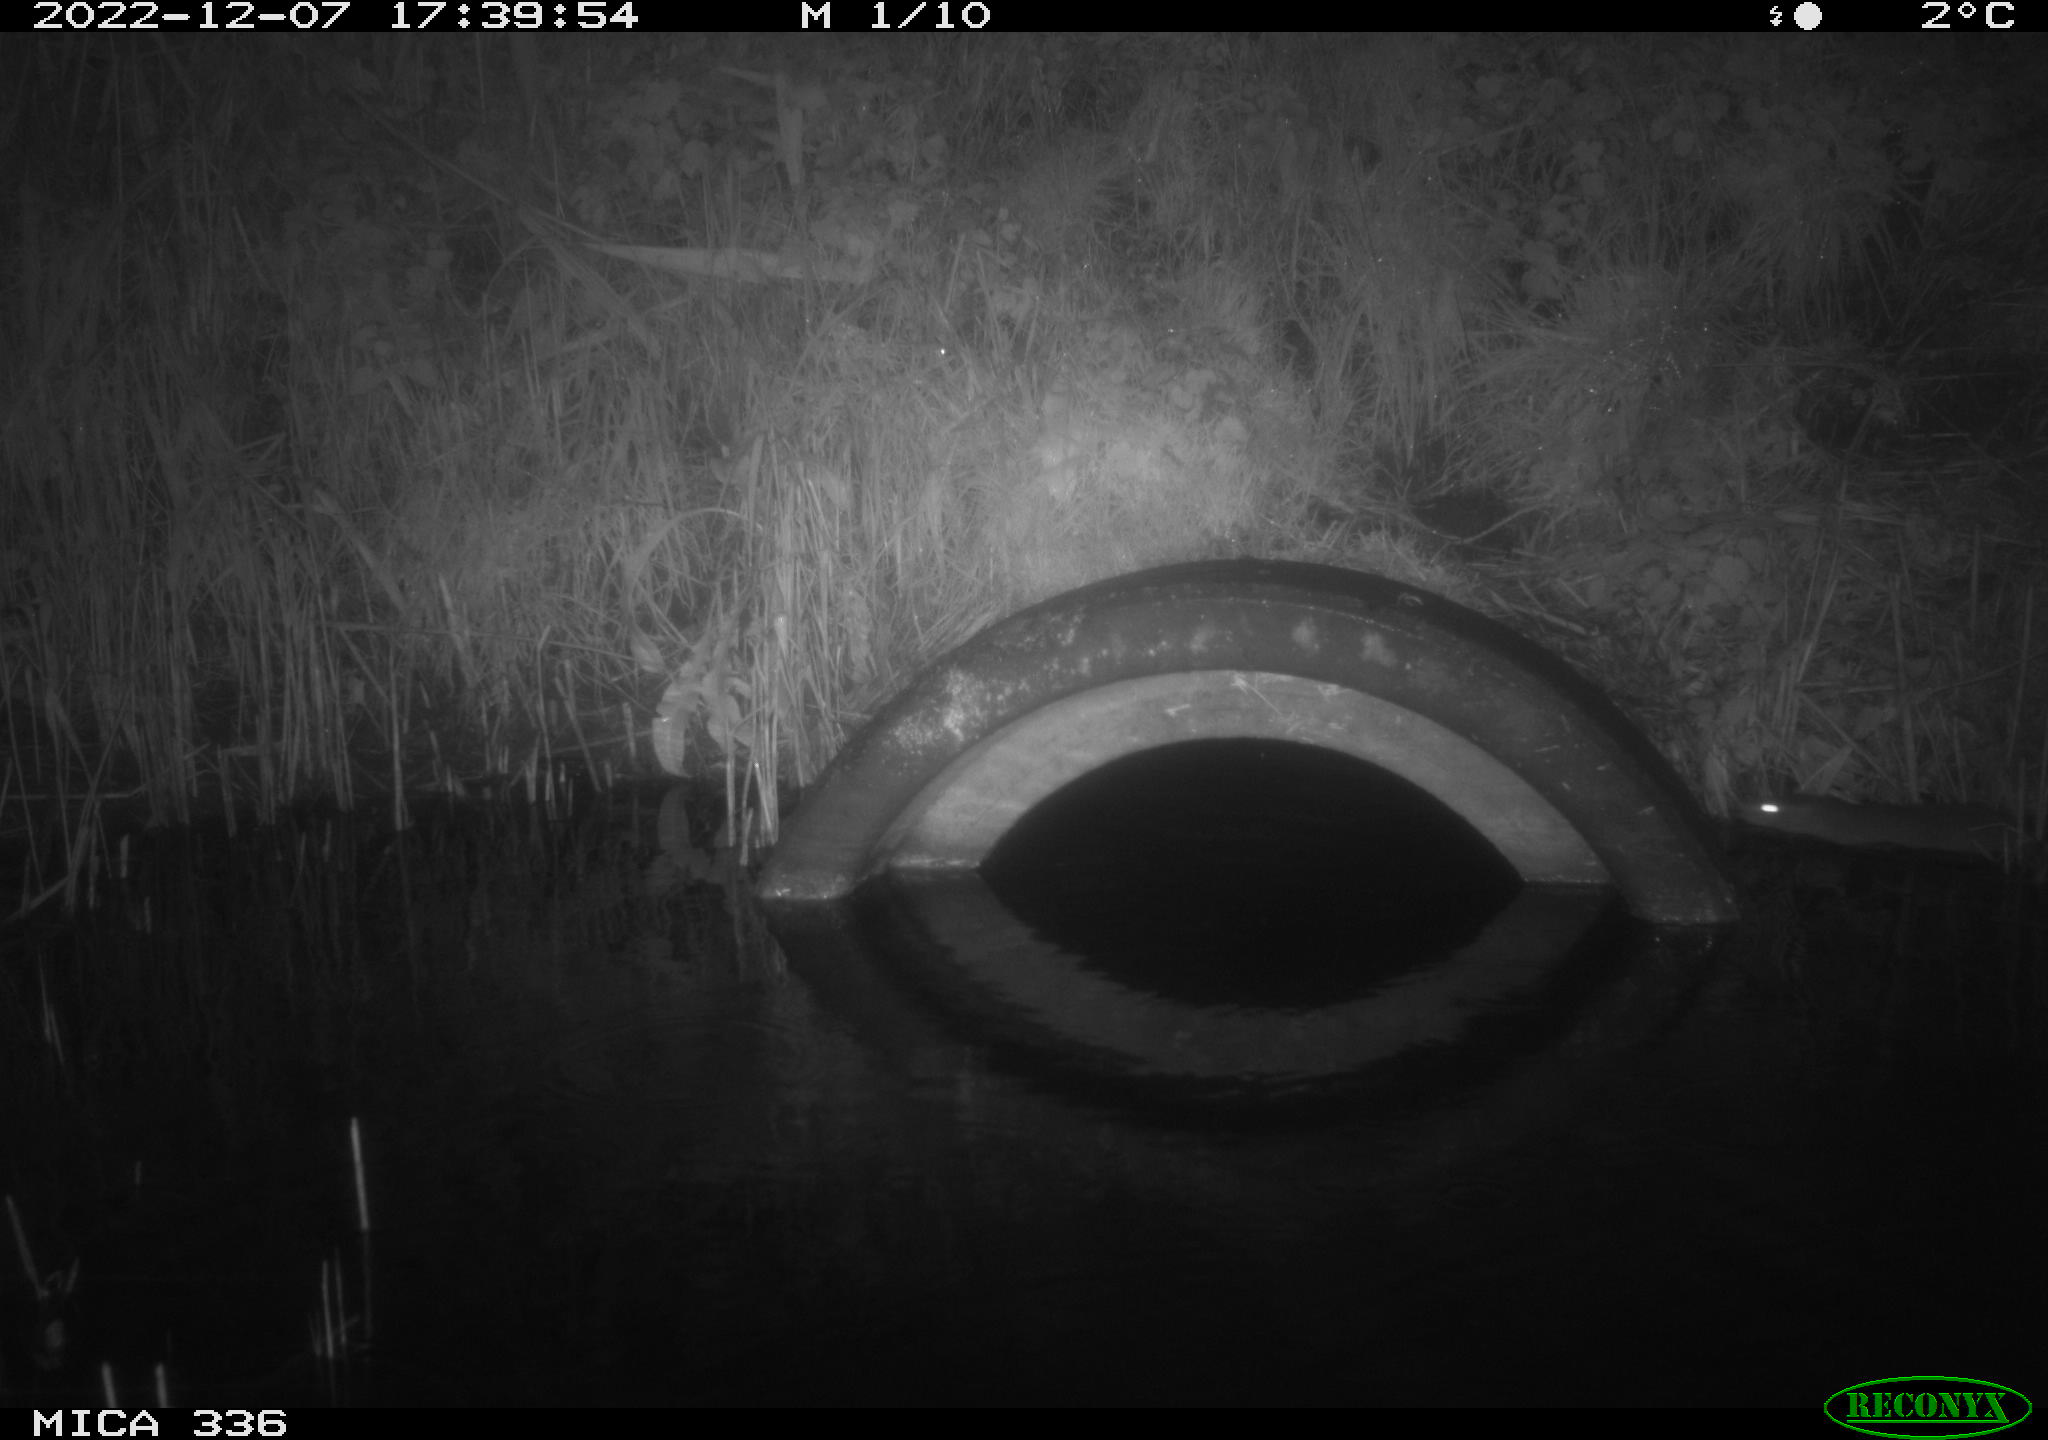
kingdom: Animalia
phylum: Chordata
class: Mammalia
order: Rodentia
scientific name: Rodentia
